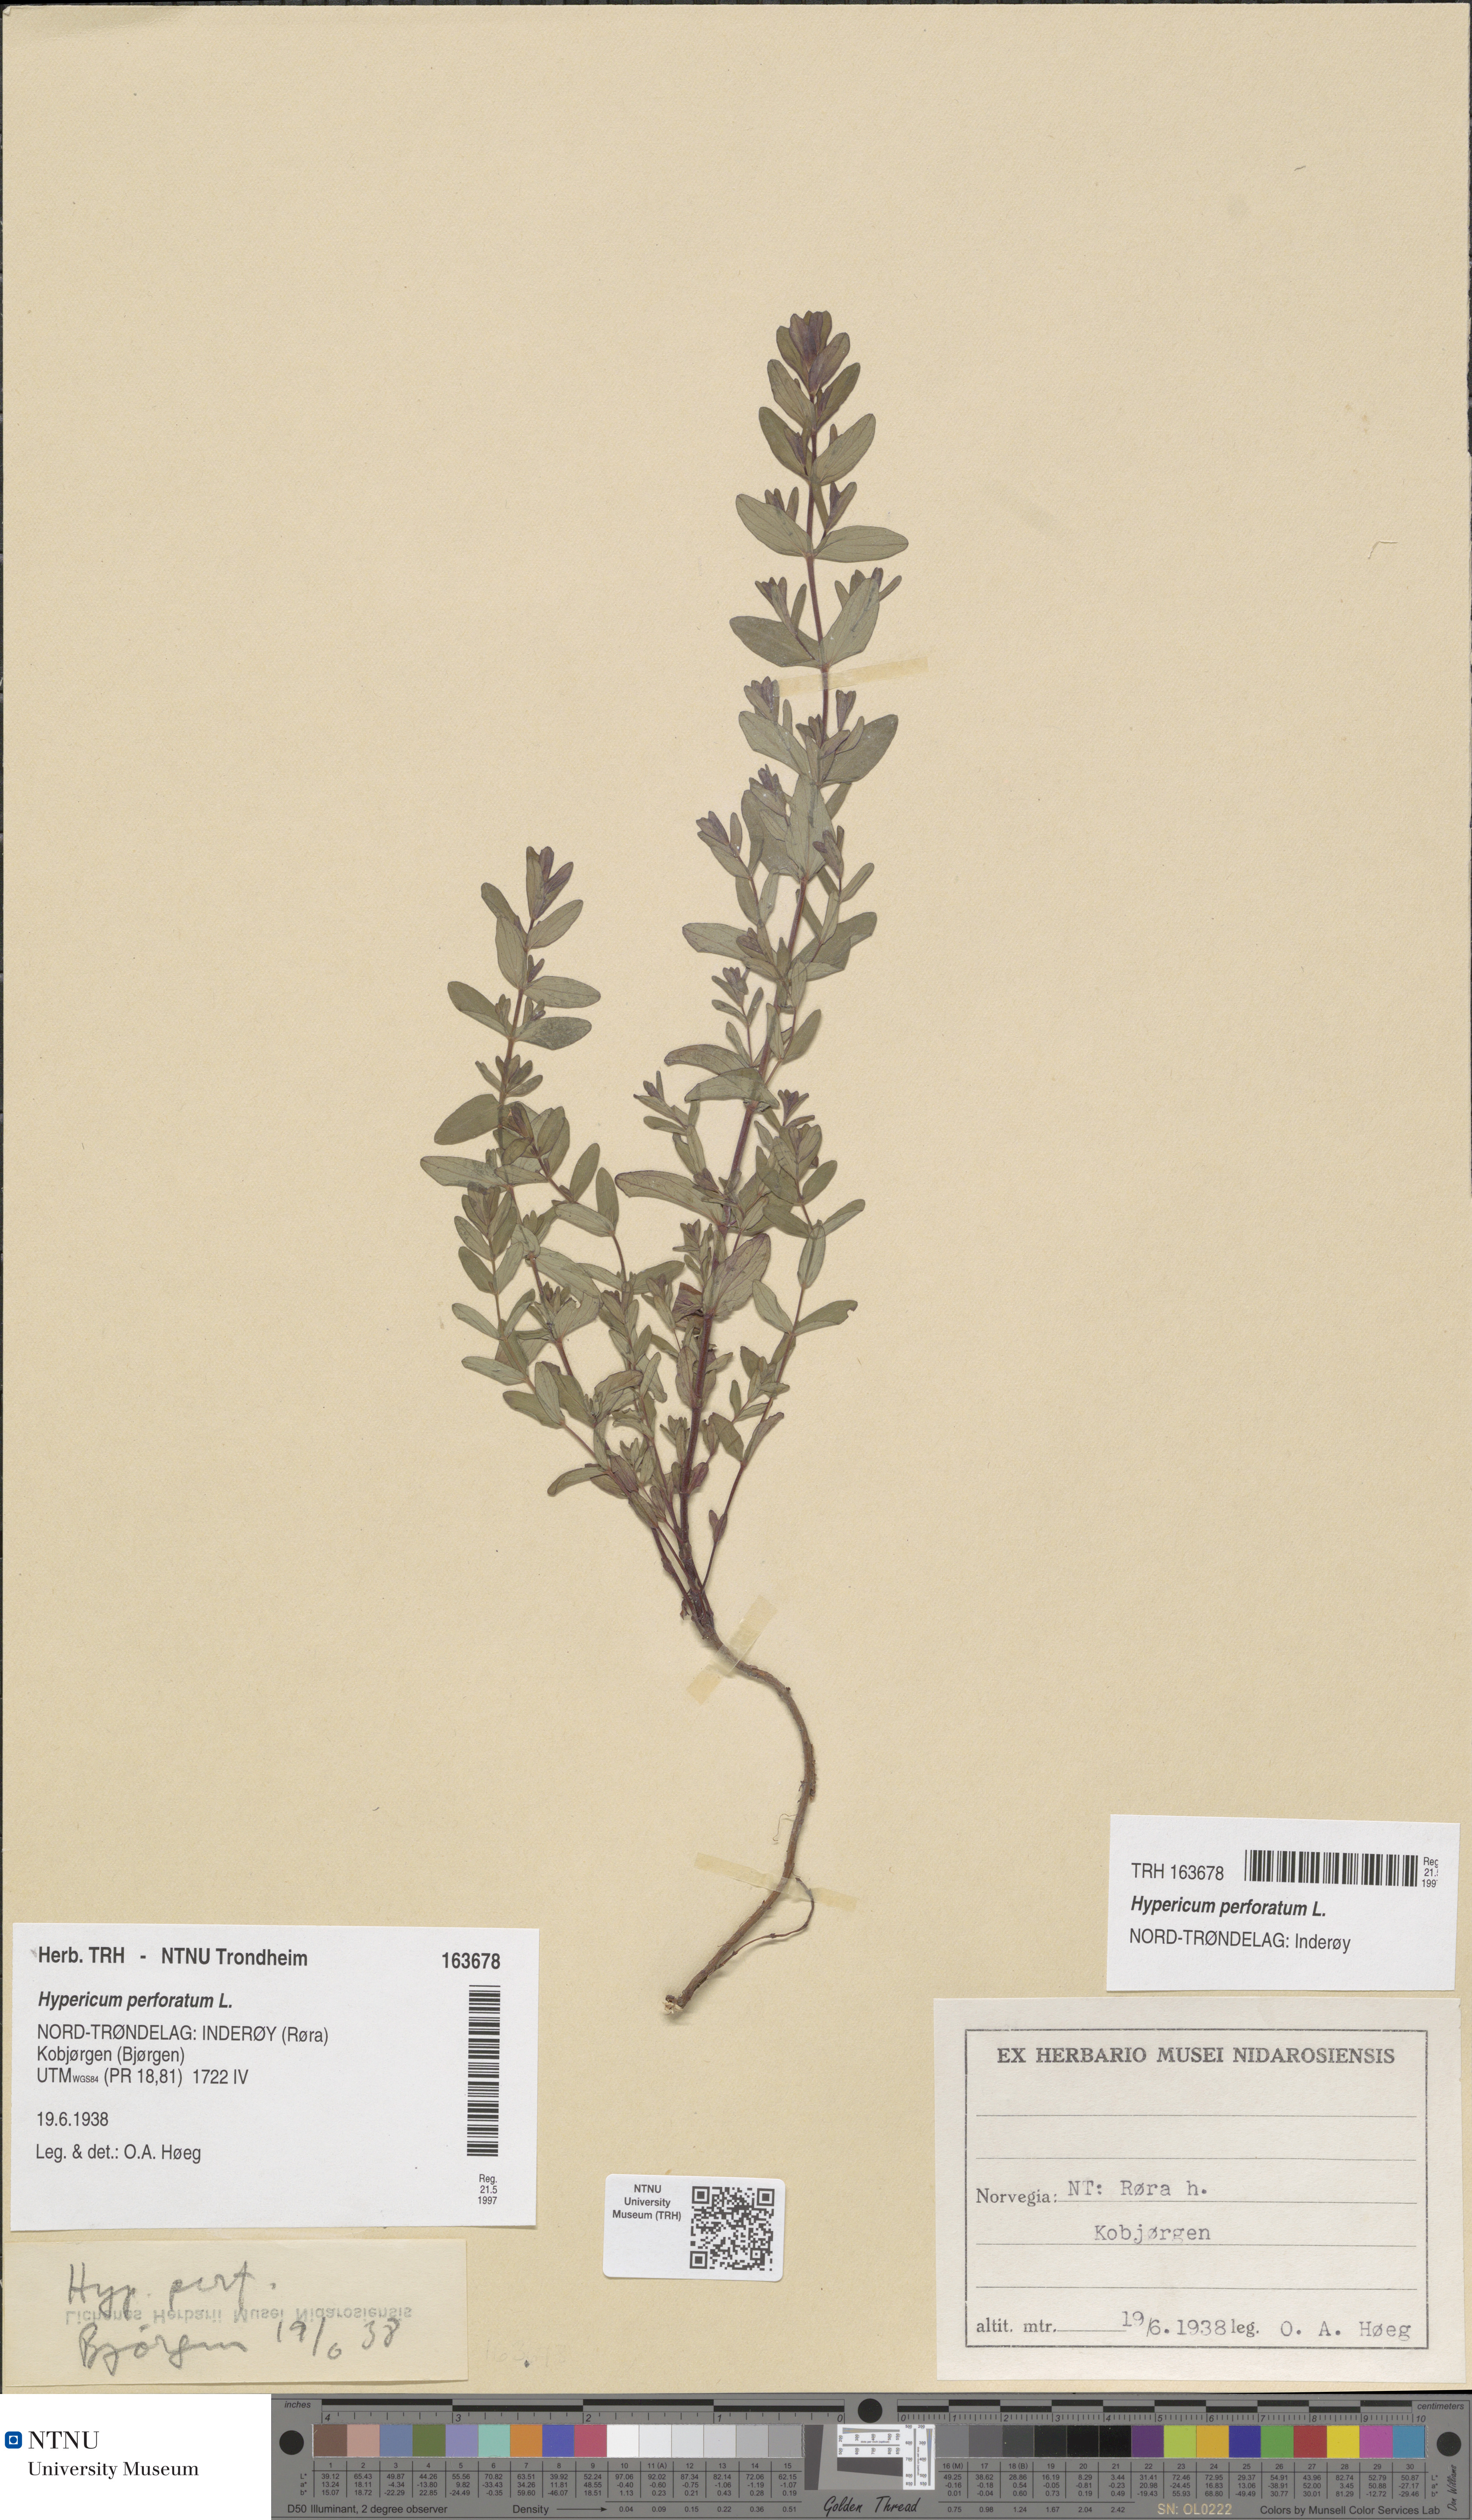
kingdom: Plantae
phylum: Tracheophyta
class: Magnoliopsida
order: Malpighiales
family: Hypericaceae
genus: Hypericum
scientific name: Hypericum perforatum
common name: Common st. johnswort
